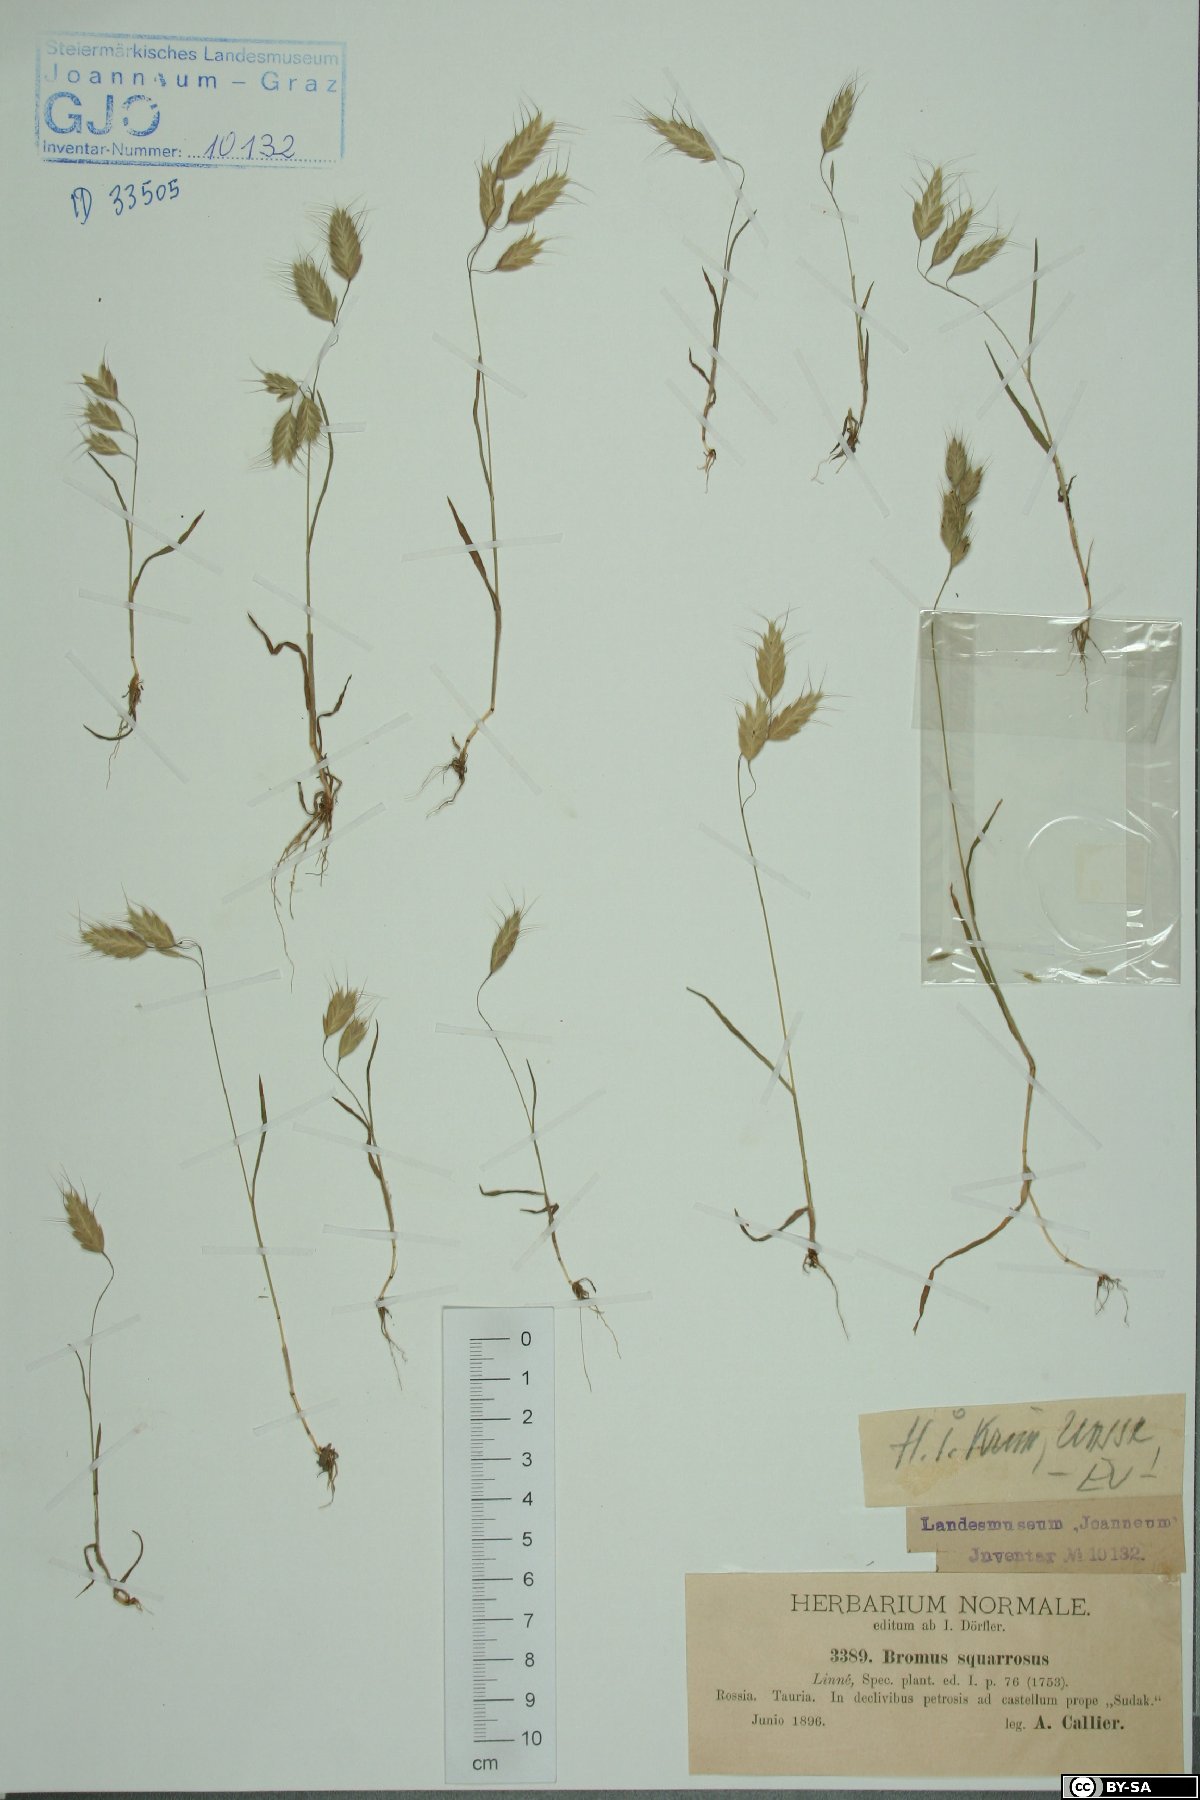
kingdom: Plantae
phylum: Tracheophyta
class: Liliopsida
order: Poales
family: Poaceae
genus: Bromus
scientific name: Bromus squarrosus
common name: Corn brome
